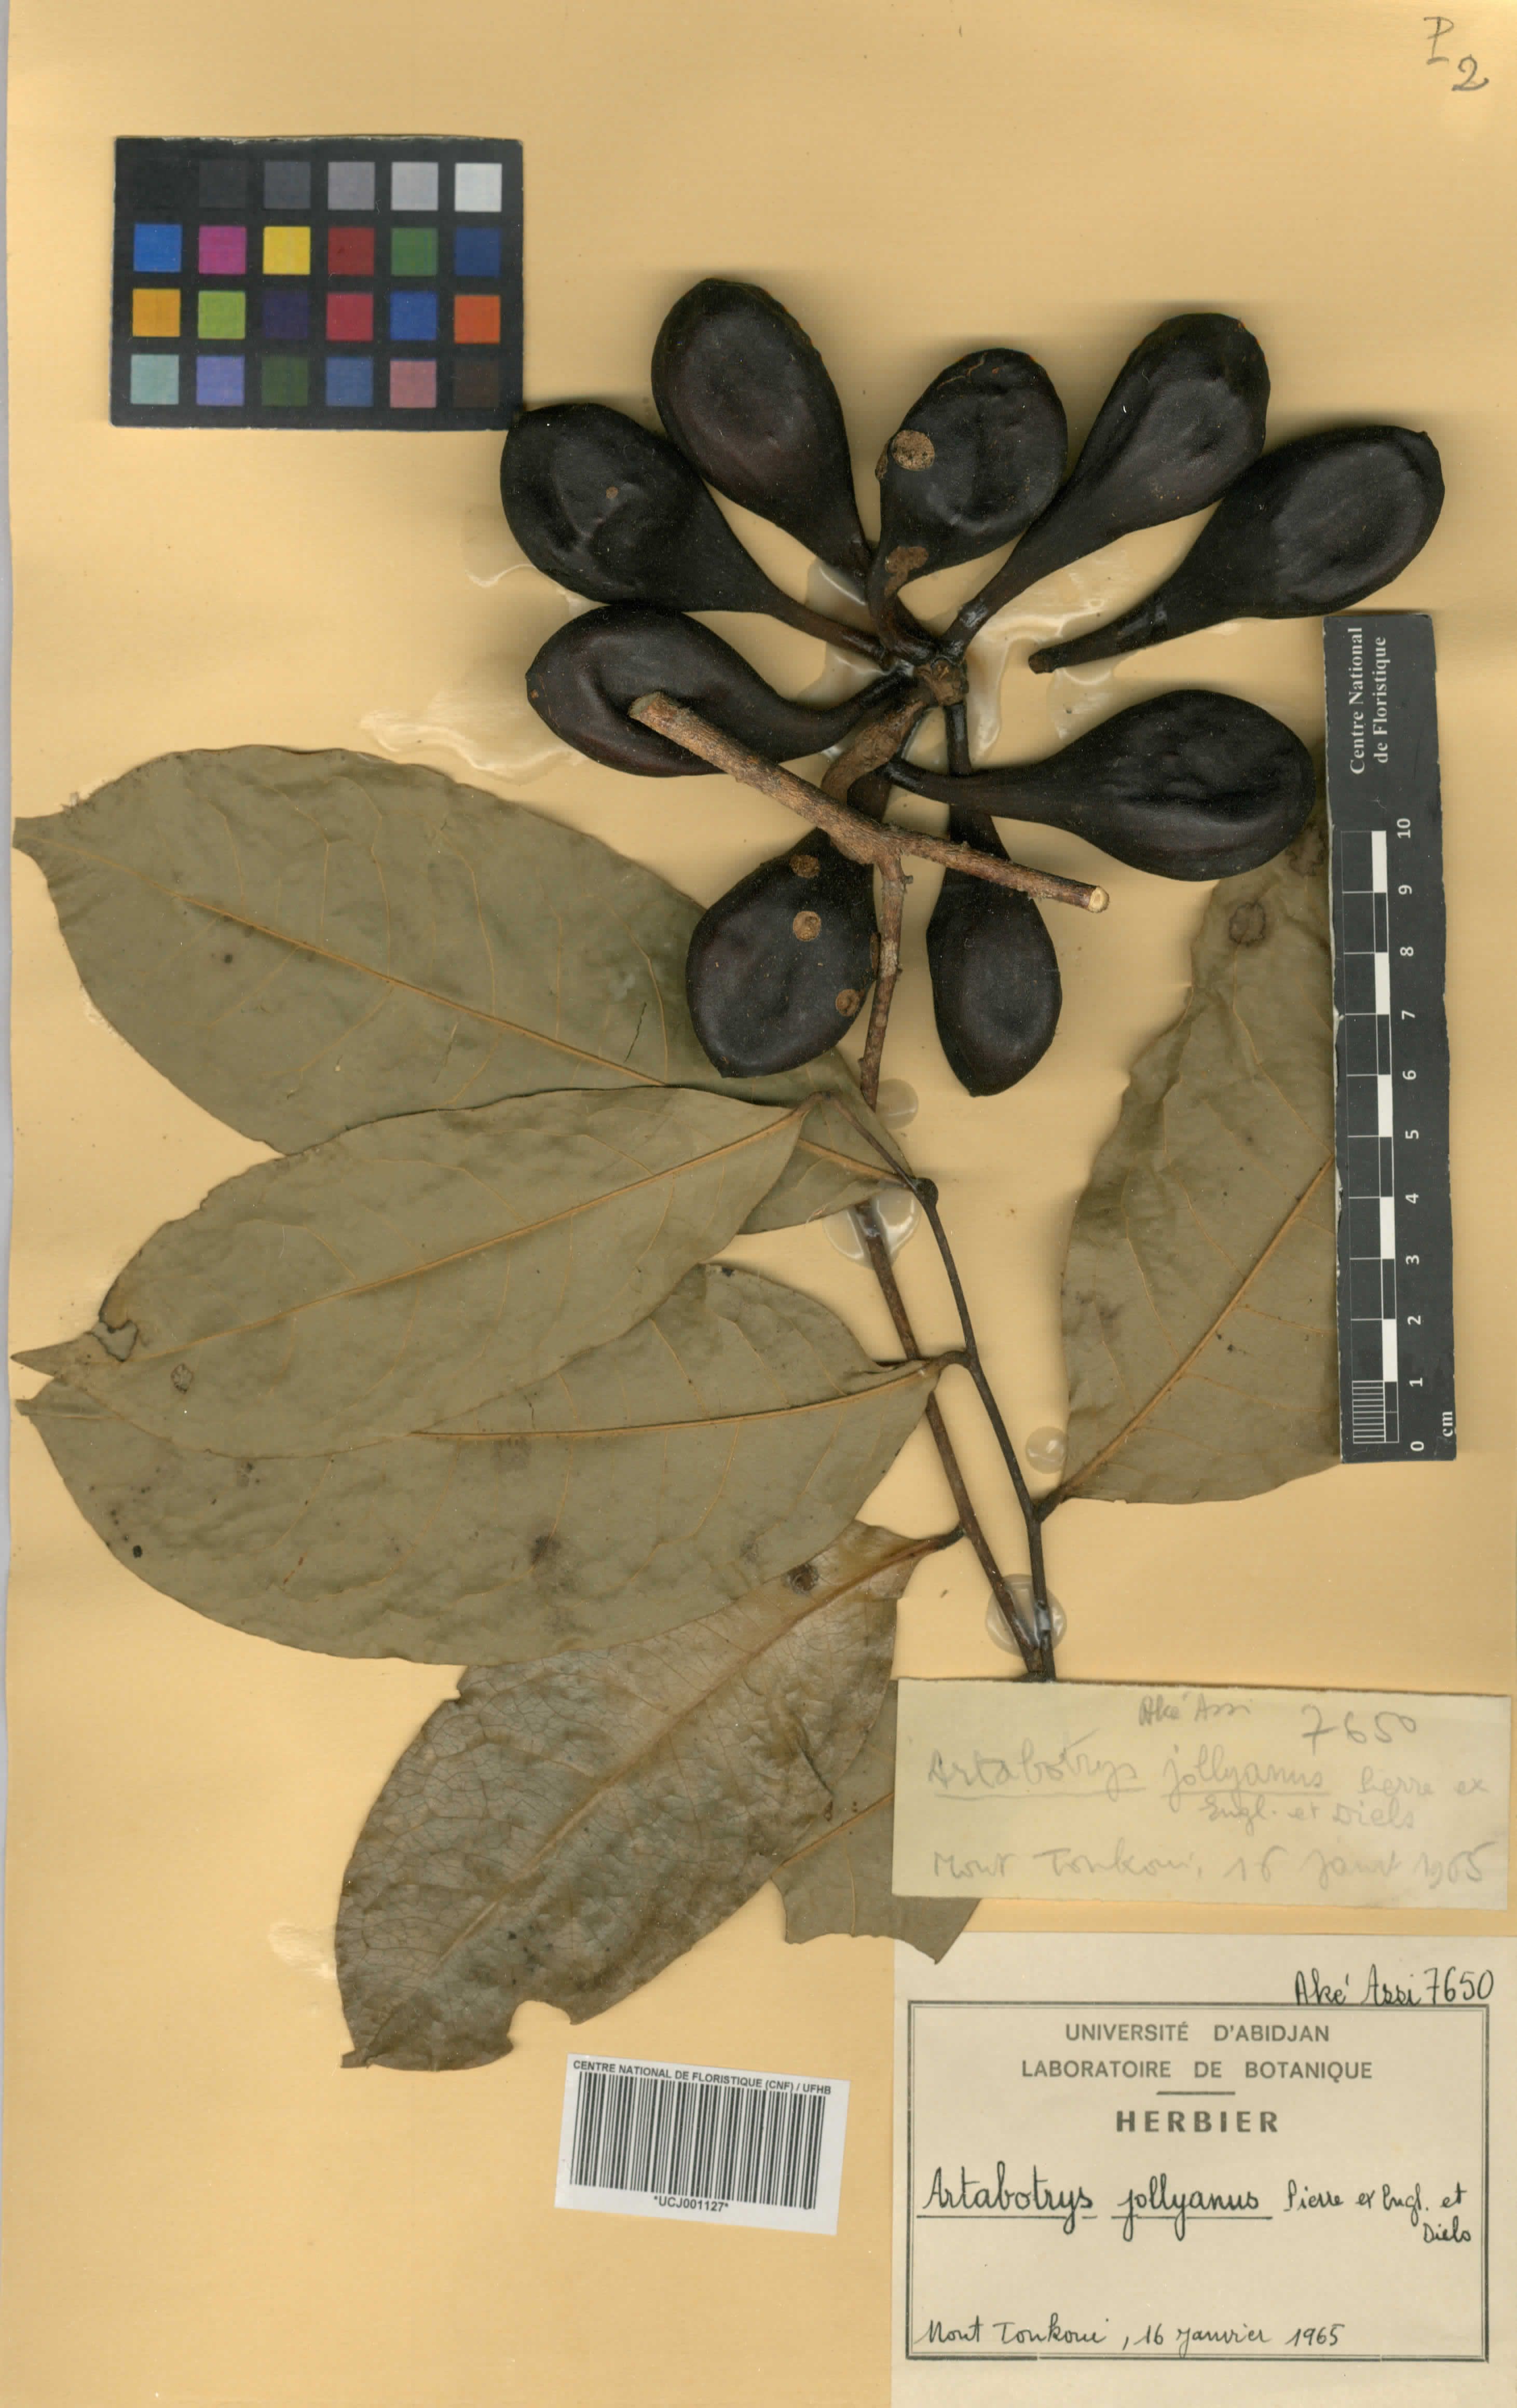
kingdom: Plantae
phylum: Tracheophyta
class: Magnoliopsida
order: Magnoliales
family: Annonaceae
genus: Artabotrys
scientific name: Artabotrys jollyanus
